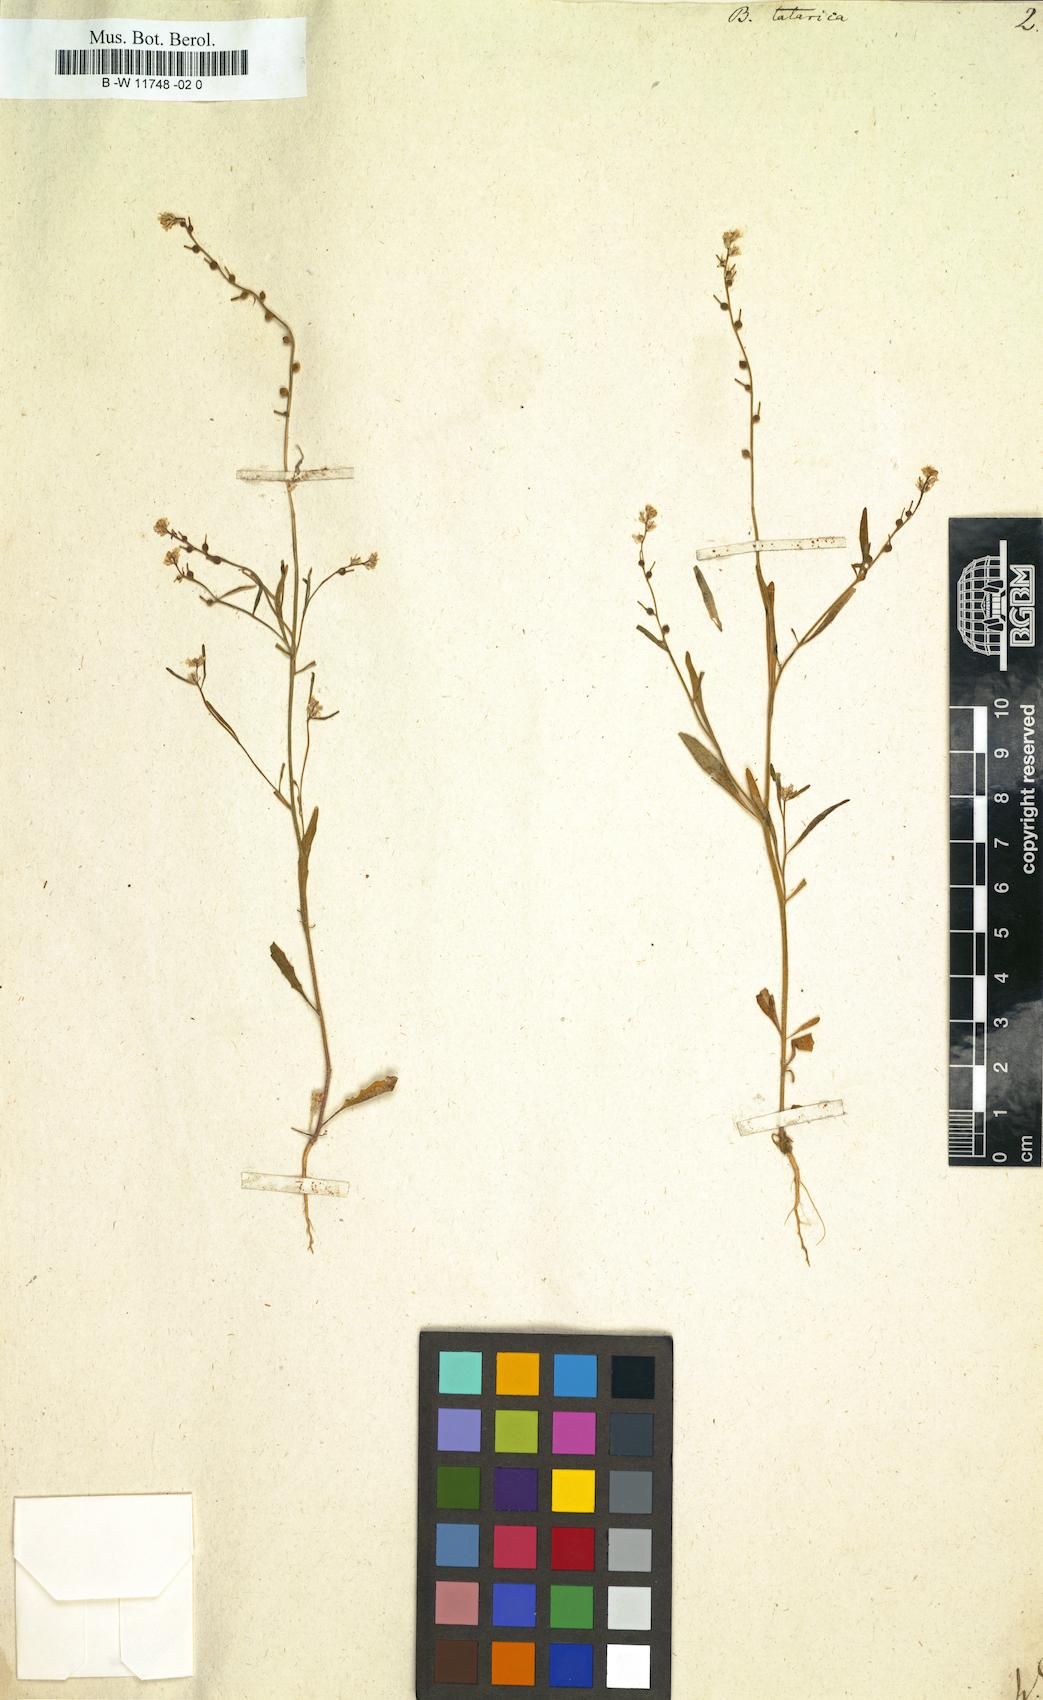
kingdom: Plantae
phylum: Tracheophyta
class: Magnoliopsida
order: Brassicales
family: Brassicaceae
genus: Litwinowia
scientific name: Litwinowia tenuissima
